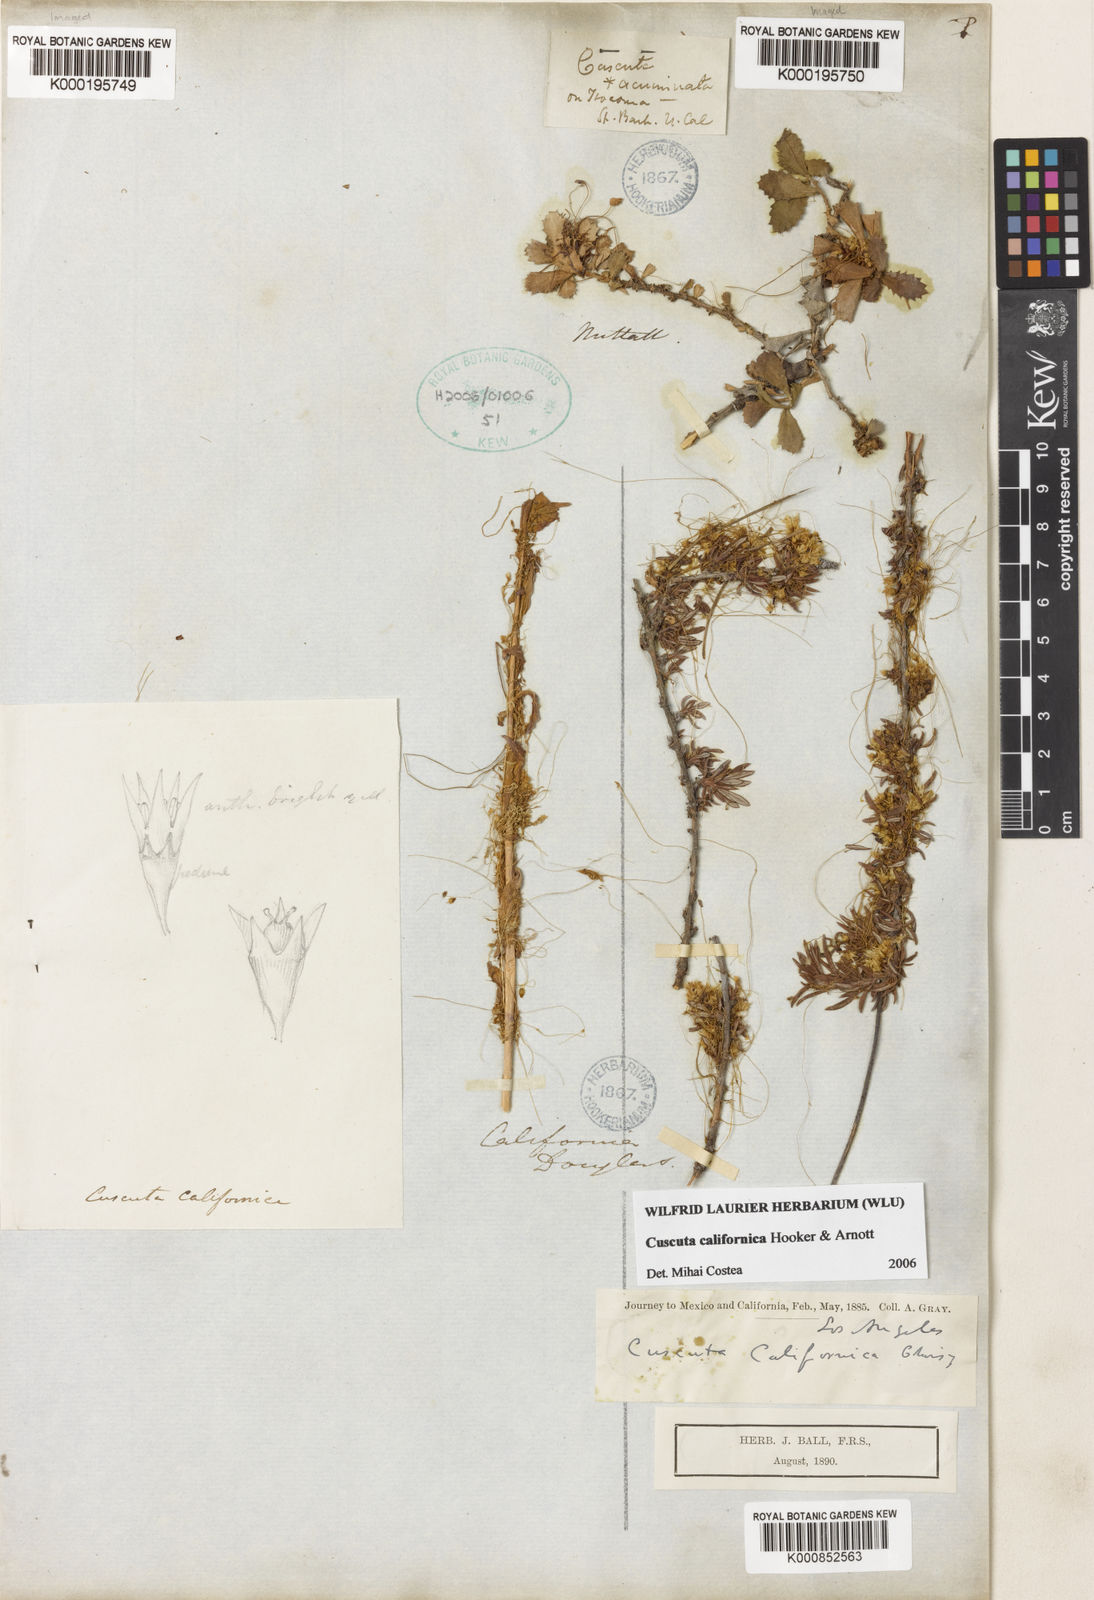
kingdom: Plantae
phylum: Tracheophyta
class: Magnoliopsida
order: Solanales
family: Convolvulaceae
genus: Cuscuta
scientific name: Cuscuta californica
